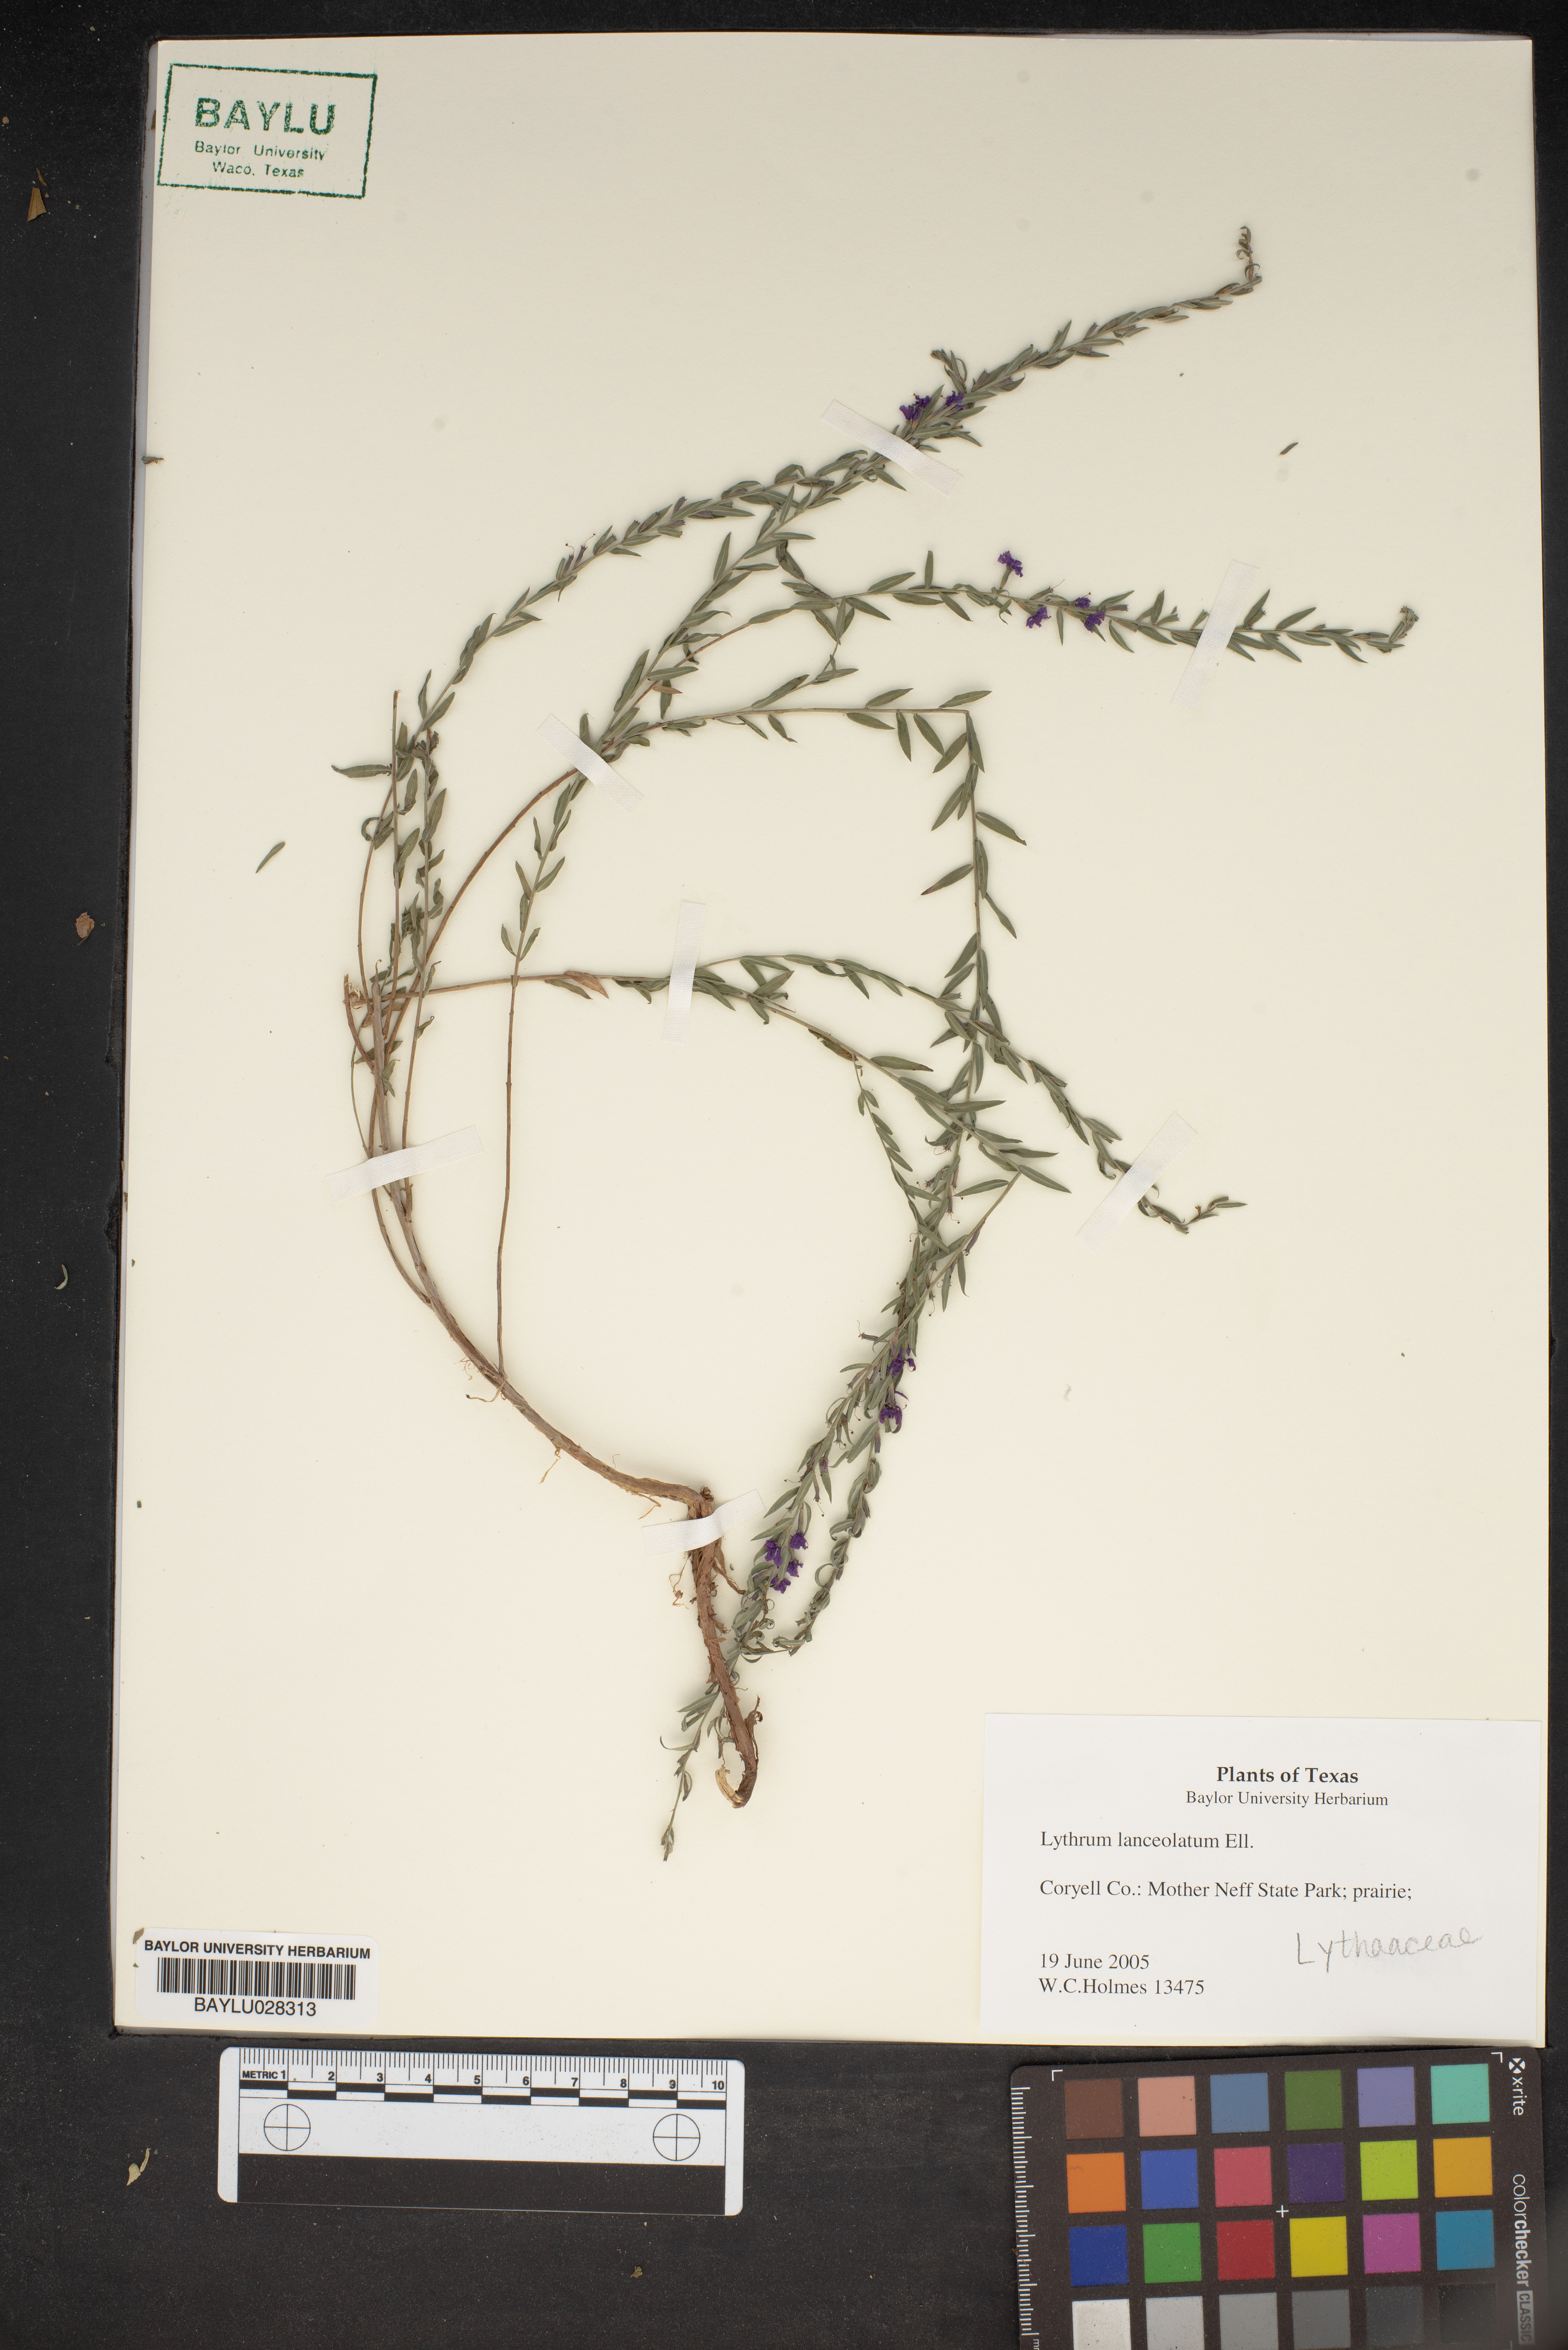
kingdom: Plantae
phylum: Tracheophyta
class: Magnoliopsida
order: Myrtales
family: Lythraceae
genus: Lythrum
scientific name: Lythrum alatum
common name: Winged loosestrife
